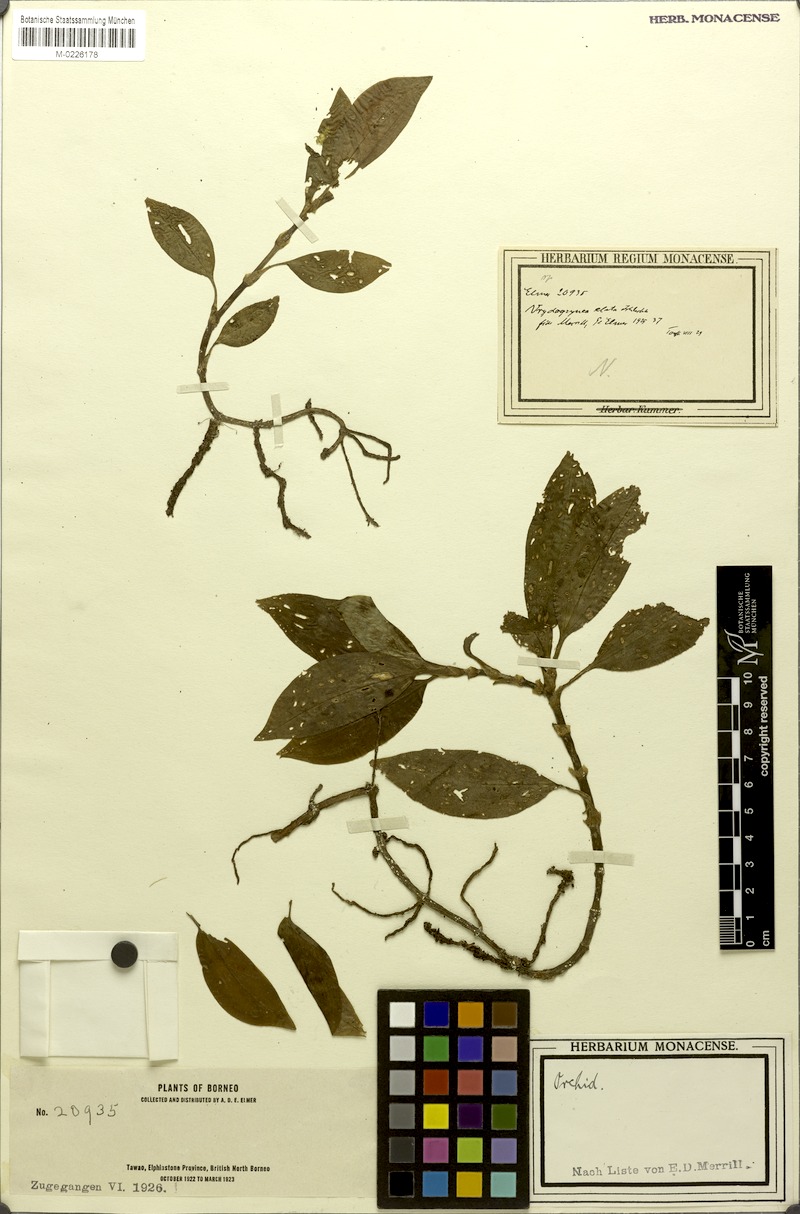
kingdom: Plantae
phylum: Tracheophyta
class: Liliopsida
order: Asparagales
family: Orchidaceae
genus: Vrydagzynea
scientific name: Vrydagzynea elata
